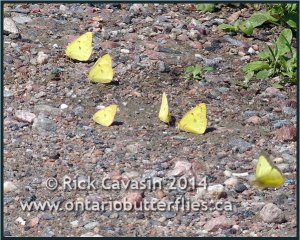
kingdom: Animalia
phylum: Arthropoda
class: Insecta
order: Lepidoptera
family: Pieridae
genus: Colias
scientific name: Colias philodice
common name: Clouded Sulphur
